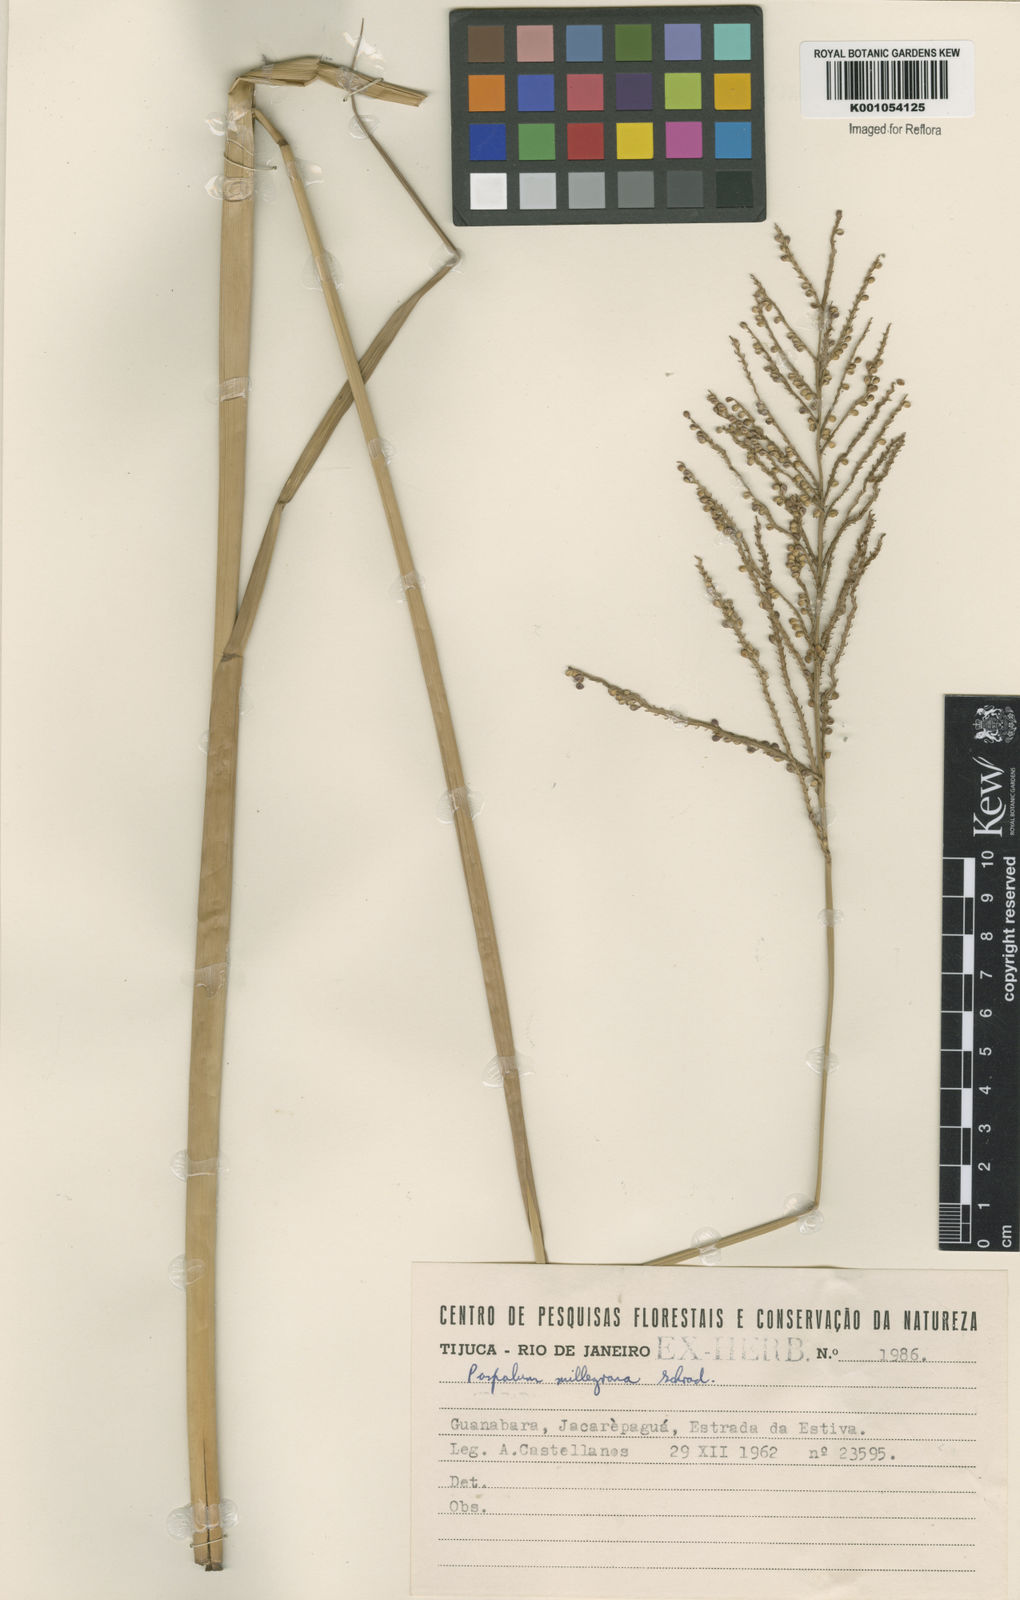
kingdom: Plantae
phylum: Tracheophyta
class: Liliopsida
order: Poales
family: Poaceae
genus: Paspalum
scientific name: Paspalum
